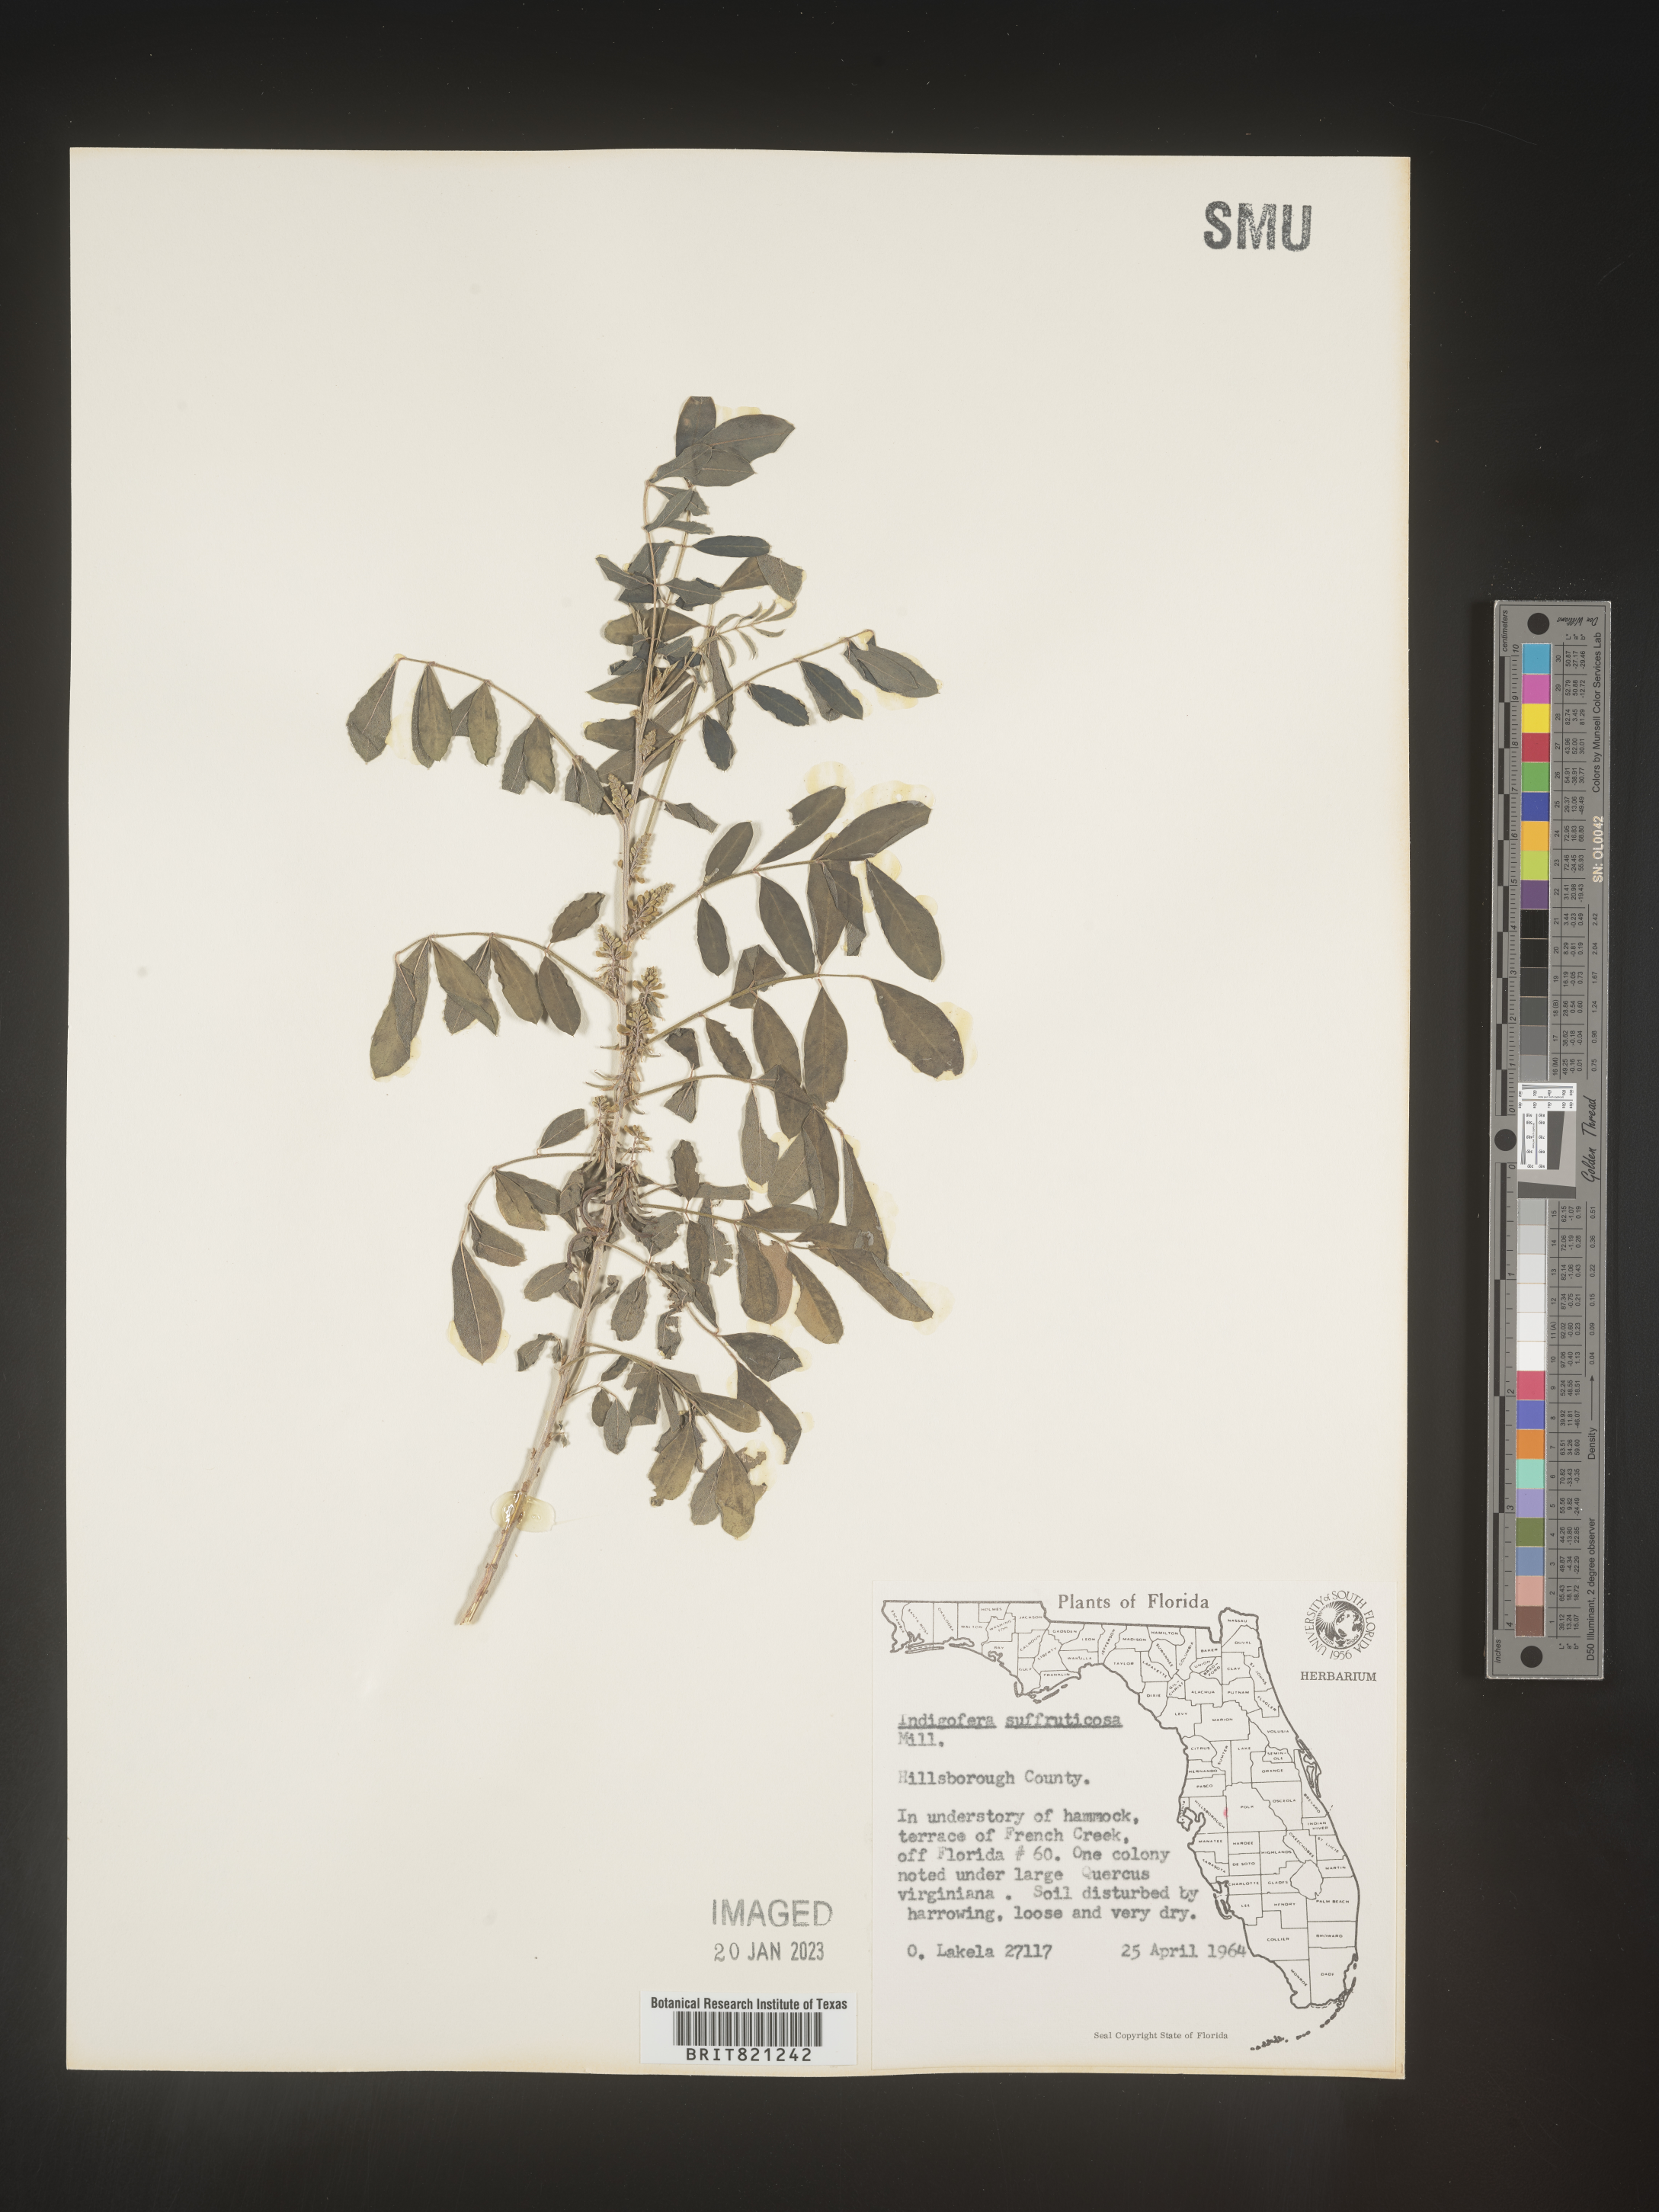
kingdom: Plantae
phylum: Tracheophyta
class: Magnoliopsida
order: Fabales
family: Fabaceae
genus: Indigofera
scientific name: Indigofera
